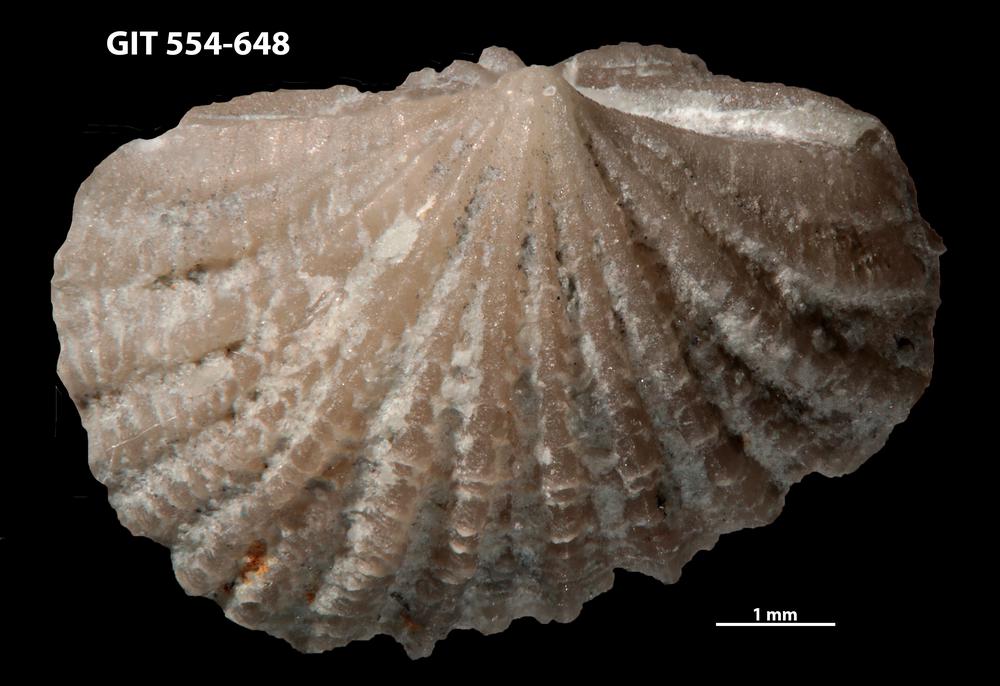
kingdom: Animalia
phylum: Brachiopoda
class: Rhynchonellata
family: Hesperorthidae
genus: Ptychopleurella
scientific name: Ptychopleurella erecta
